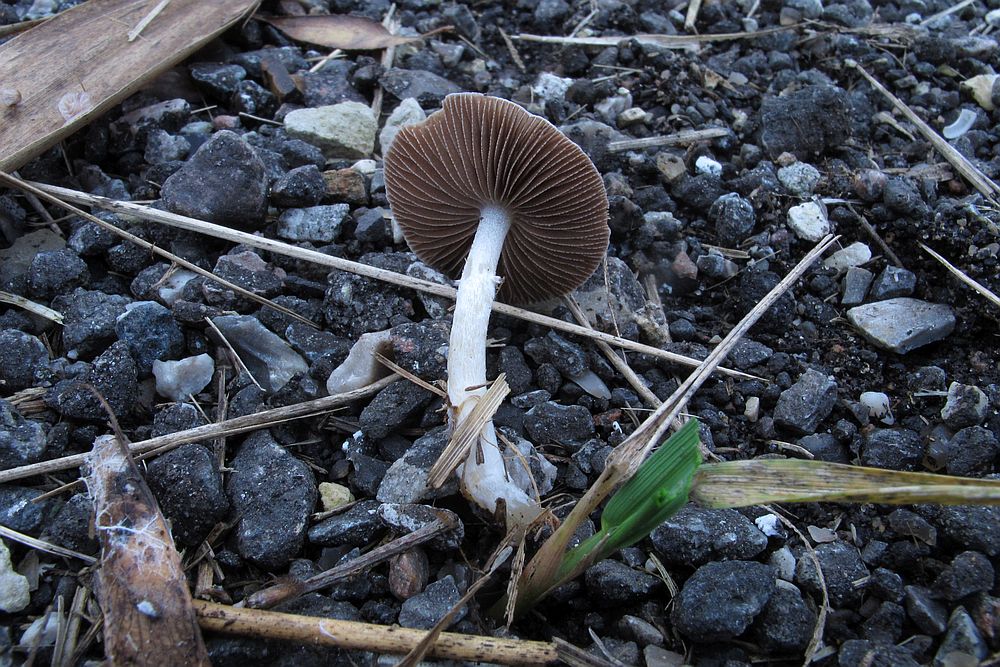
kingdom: Fungi
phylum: Basidiomycota
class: Agaricomycetes
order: Agaricales
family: Strophariaceae
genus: Stropharia
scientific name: Stropharia inuncta
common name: lillabrun bredblad
